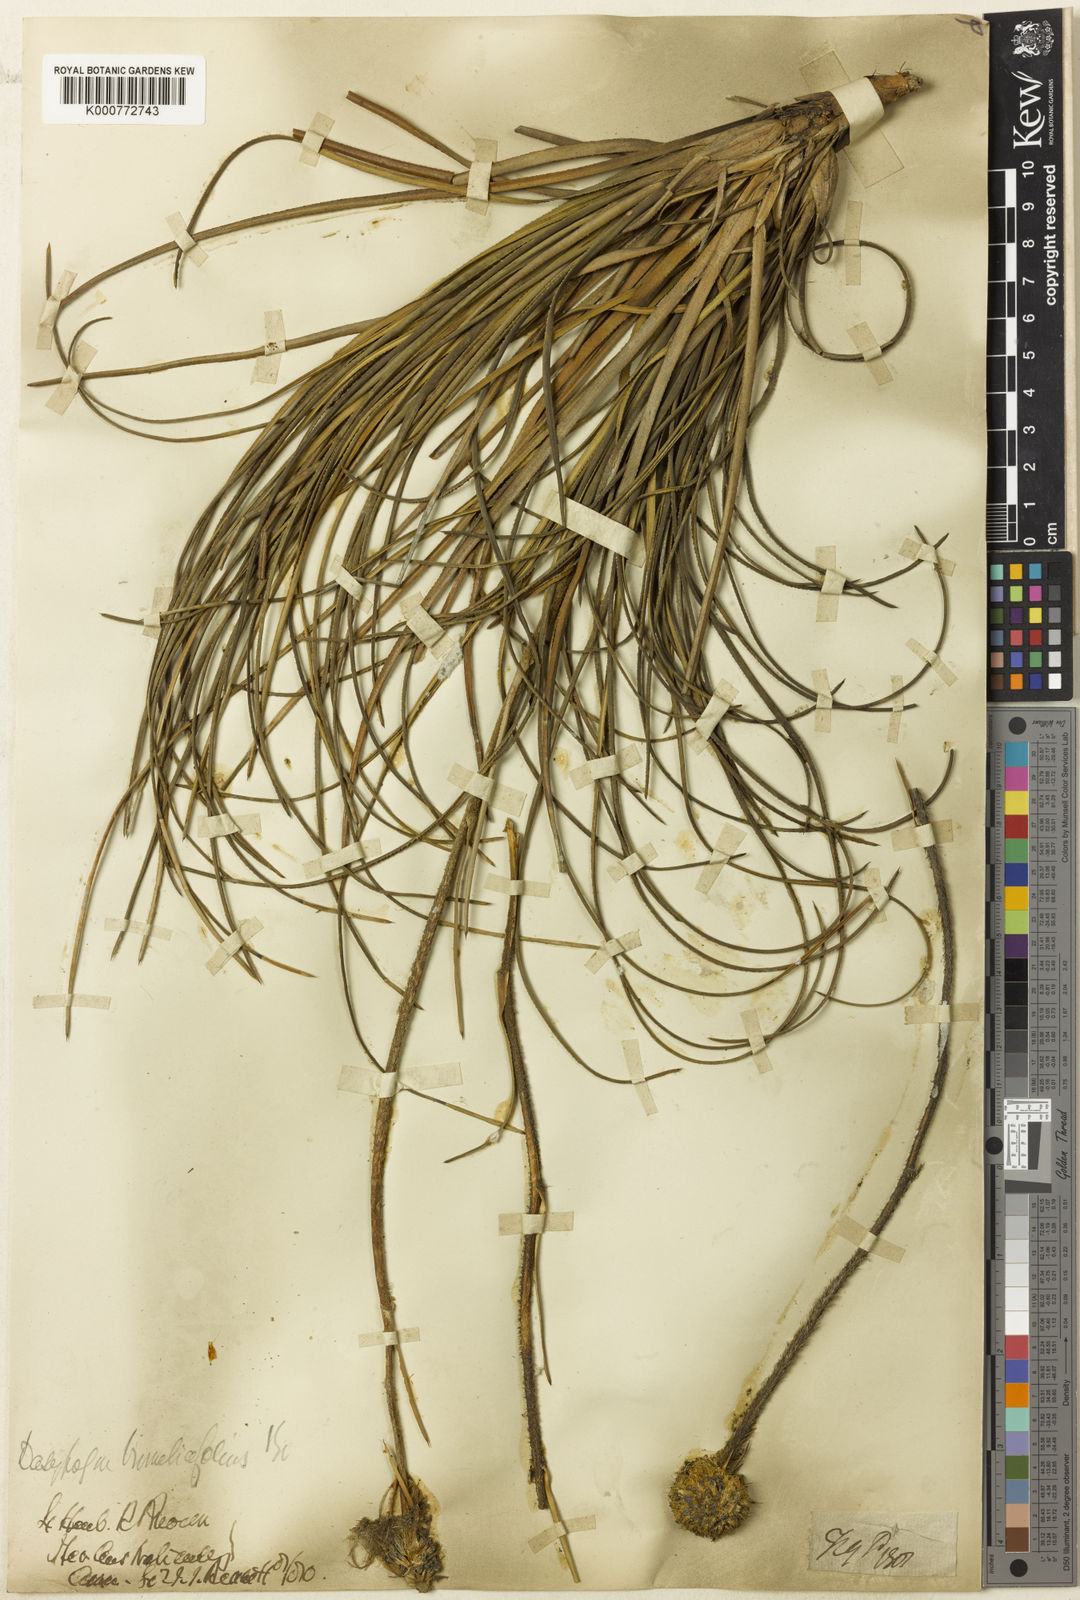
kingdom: Plantae
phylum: Tracheophyta
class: Liliopsida
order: Arecales
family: Dasypogonaceae
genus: Dasypogon
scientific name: Dasypogon bromeliifolius
